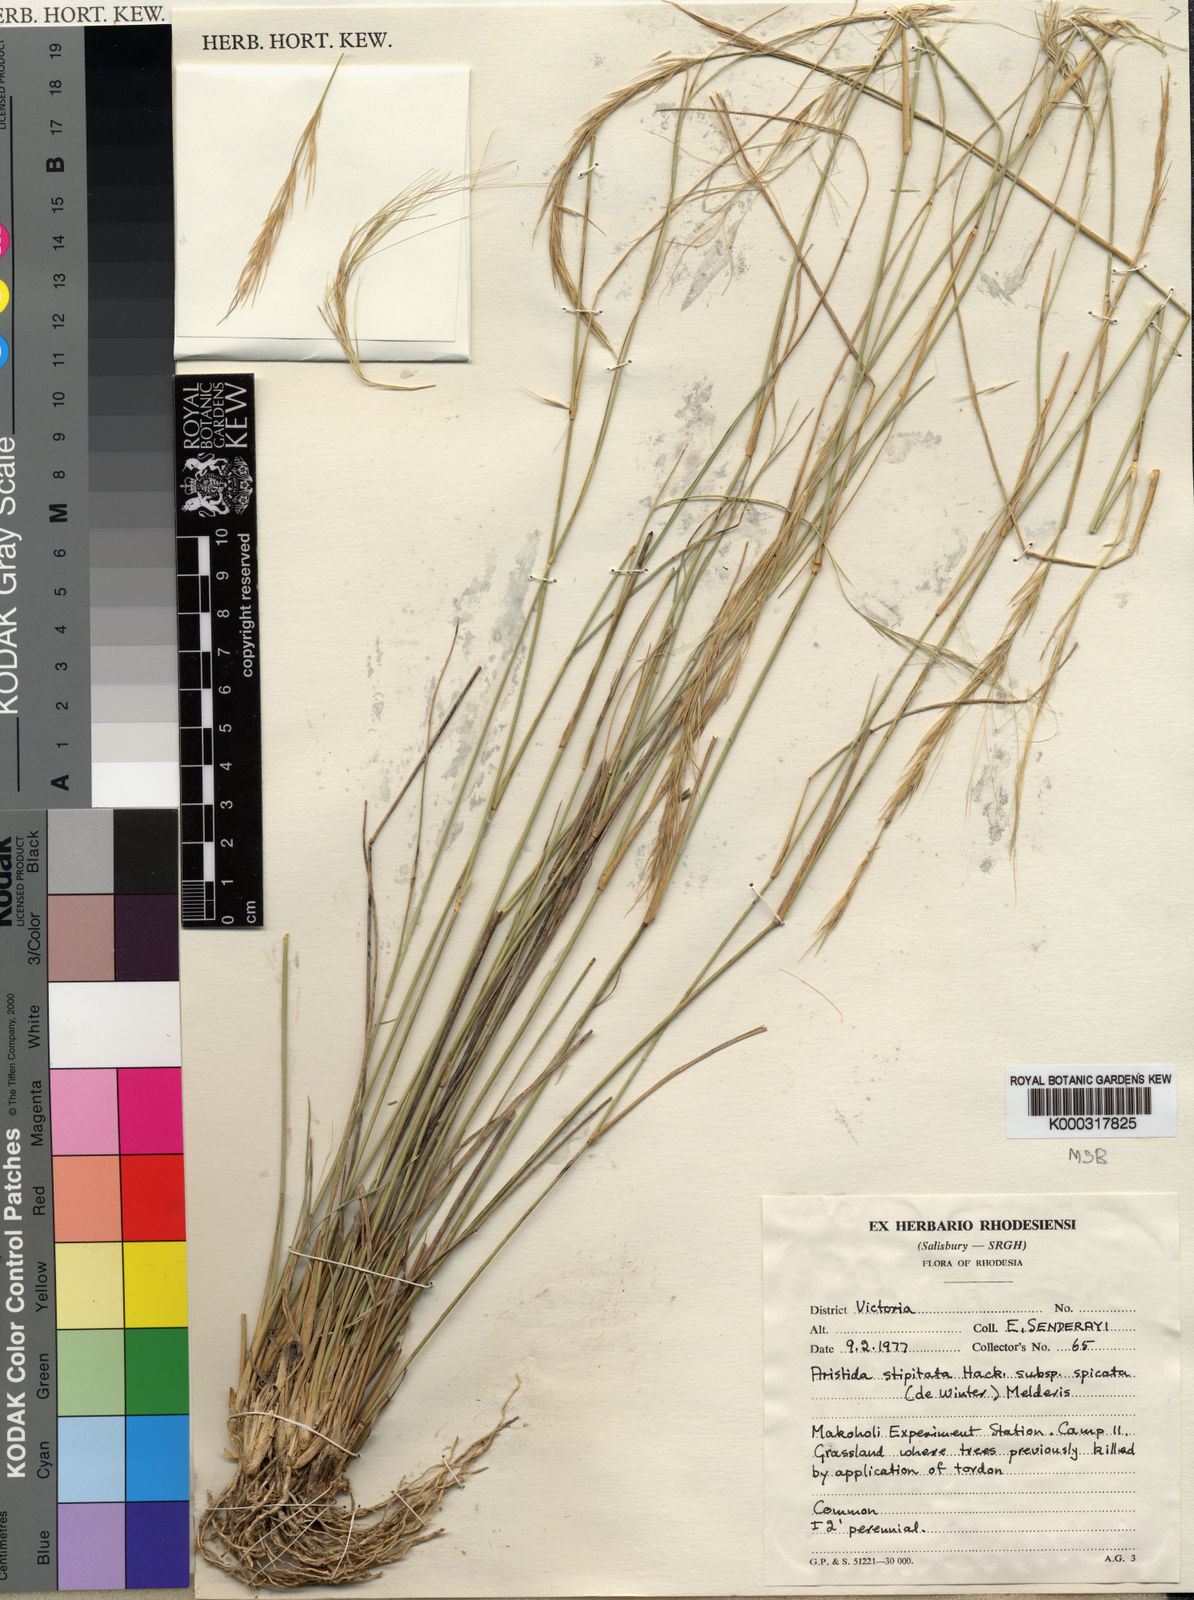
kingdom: Plantae
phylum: Tracheophyta
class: Liliopsida
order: Poales
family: Poaceae
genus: Aristida
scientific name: Aristida stipitata
